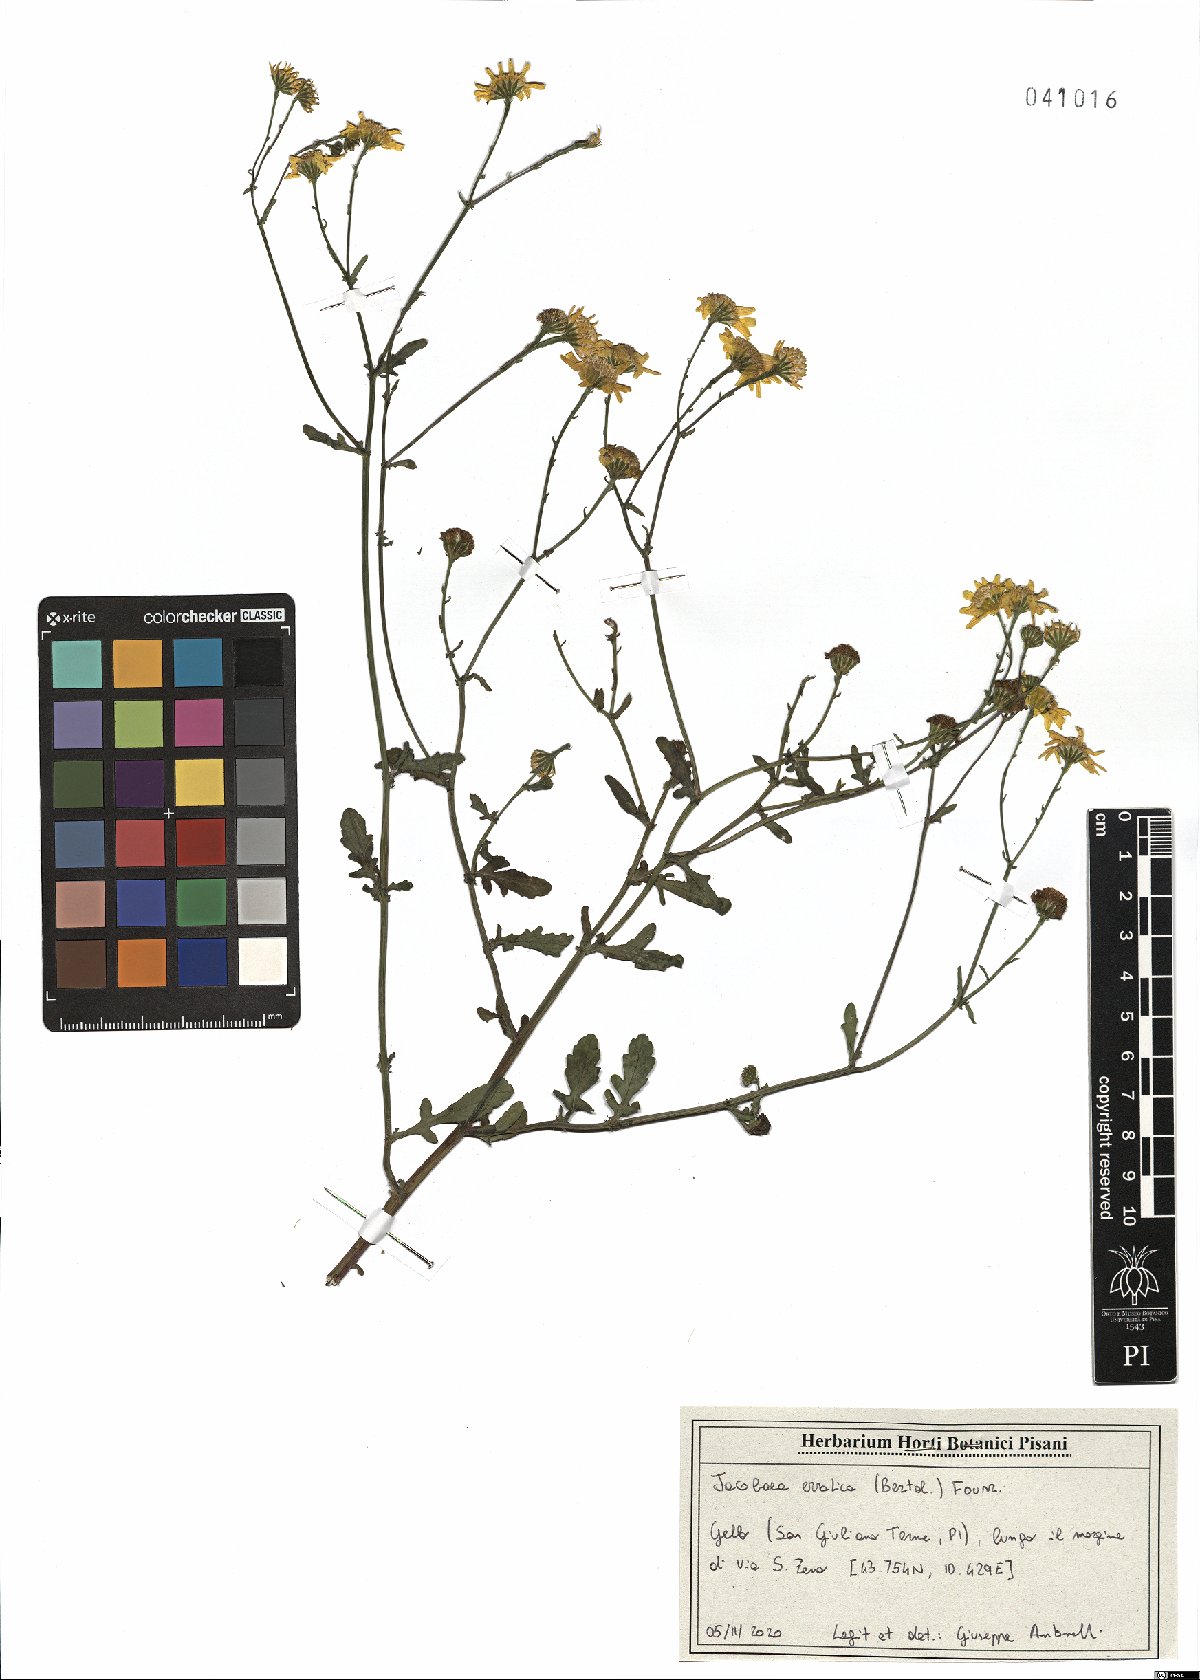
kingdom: Plantae
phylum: Tracheophyta
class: Magnoliopsida
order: Asterales
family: Asteraceae
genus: Jacobaea
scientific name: Jacobaea erratica
